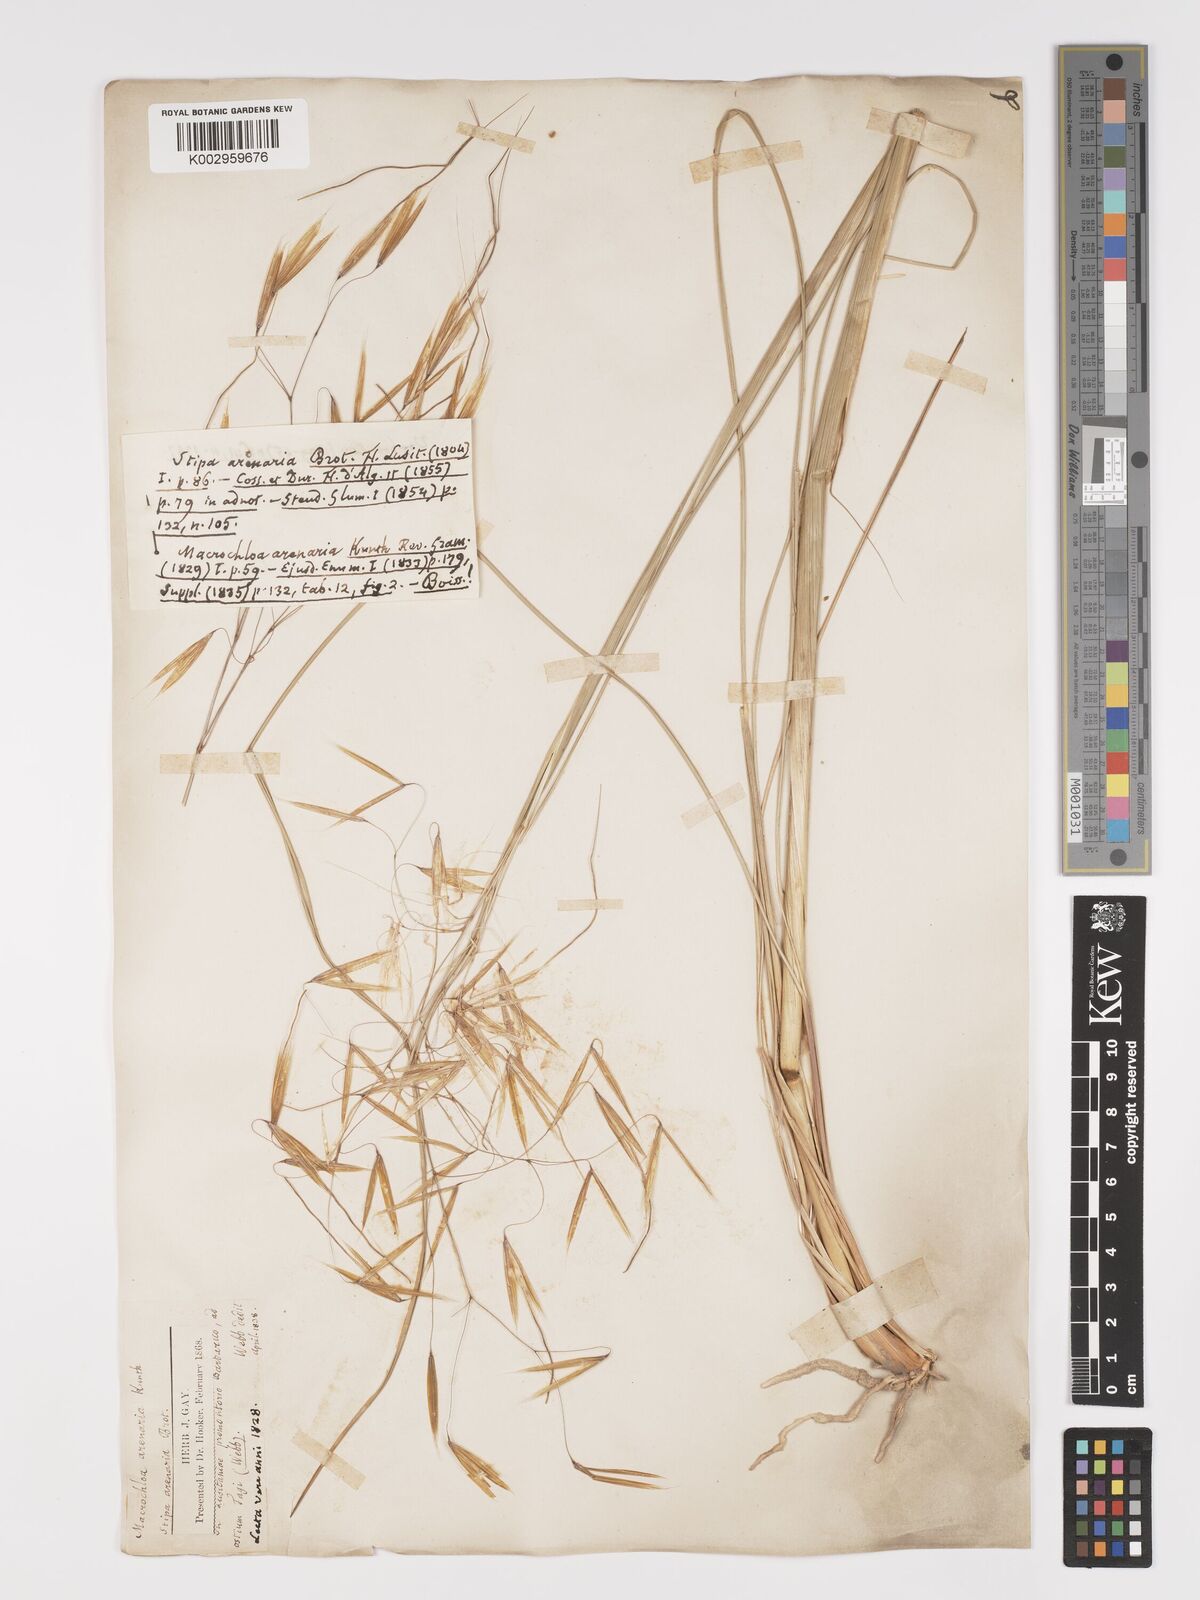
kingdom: Plantae
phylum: Tracheophyta
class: Liliopsida
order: Poales
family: Poaceae
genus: Celtica
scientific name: Celtica gigantea
